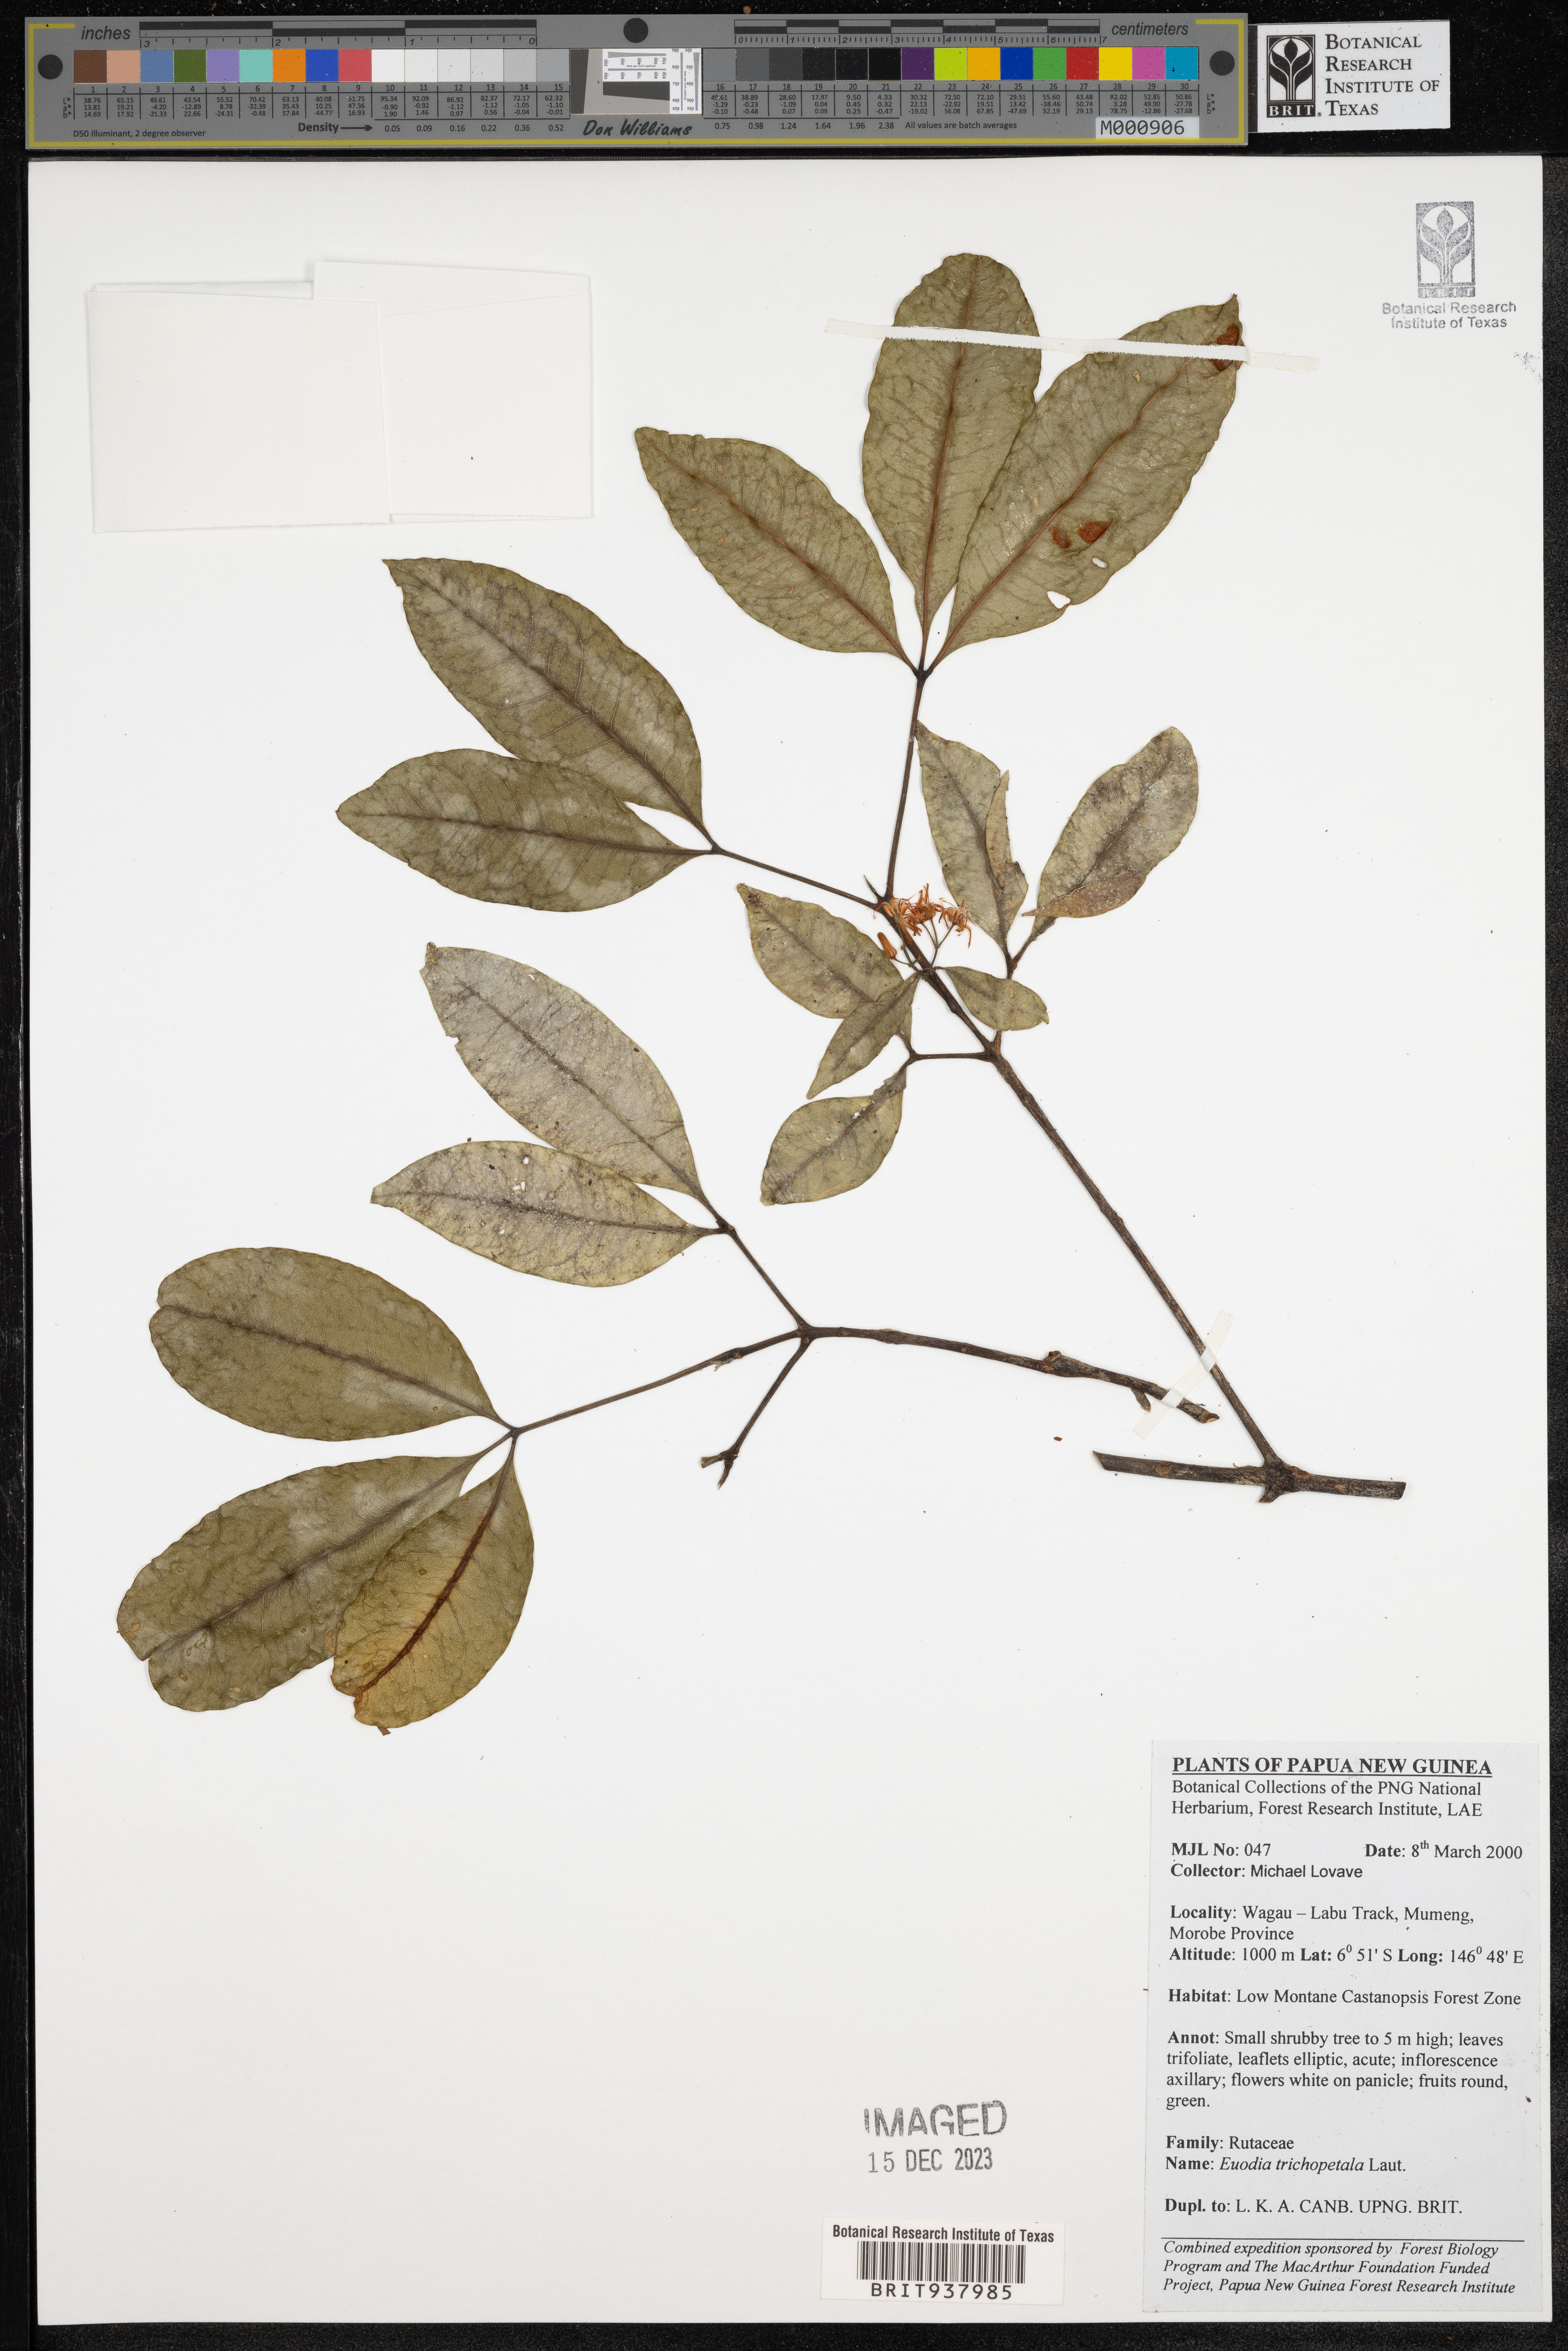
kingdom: Plantae
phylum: Tracheophyta
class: Magnoliopsida
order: Sapindales
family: Rutaceae
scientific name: Rutaceae
